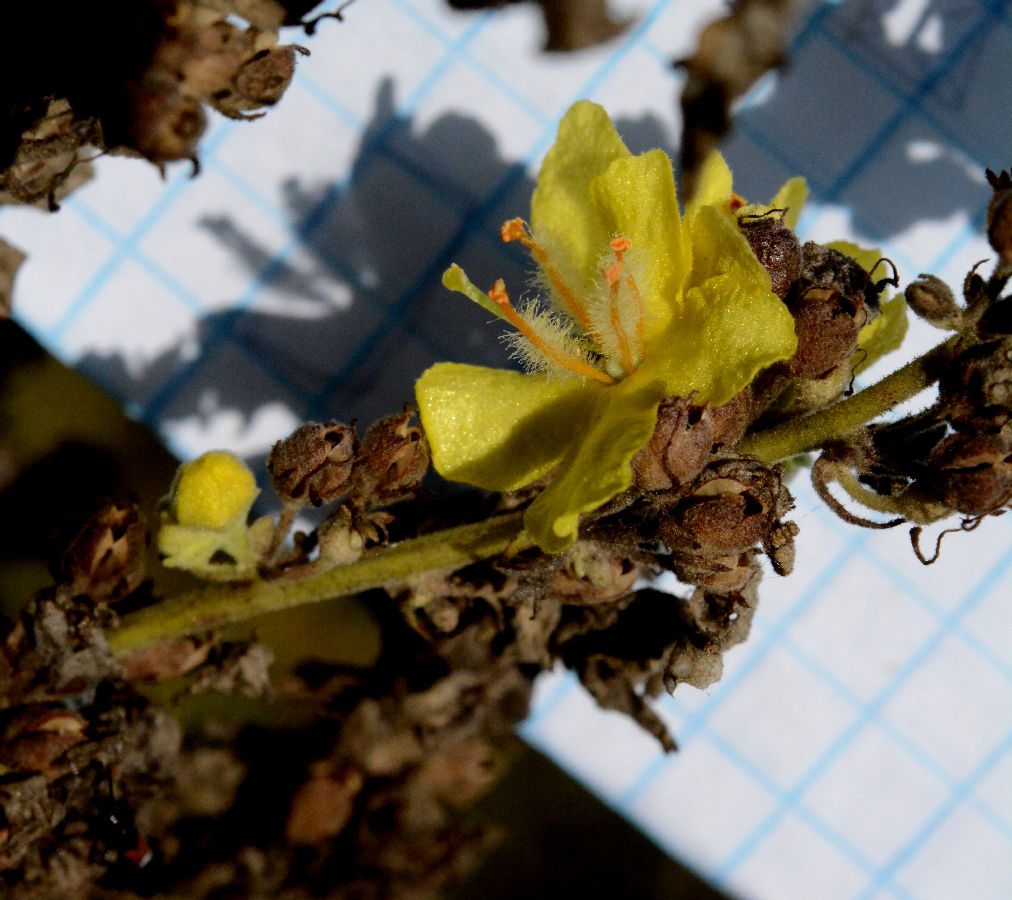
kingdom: Plantae
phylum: Tracheophyta
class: Magnoliopsida
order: Lamiales
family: Scrophulariaceae
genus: Verbascum
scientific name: Verbascum lychnitis
